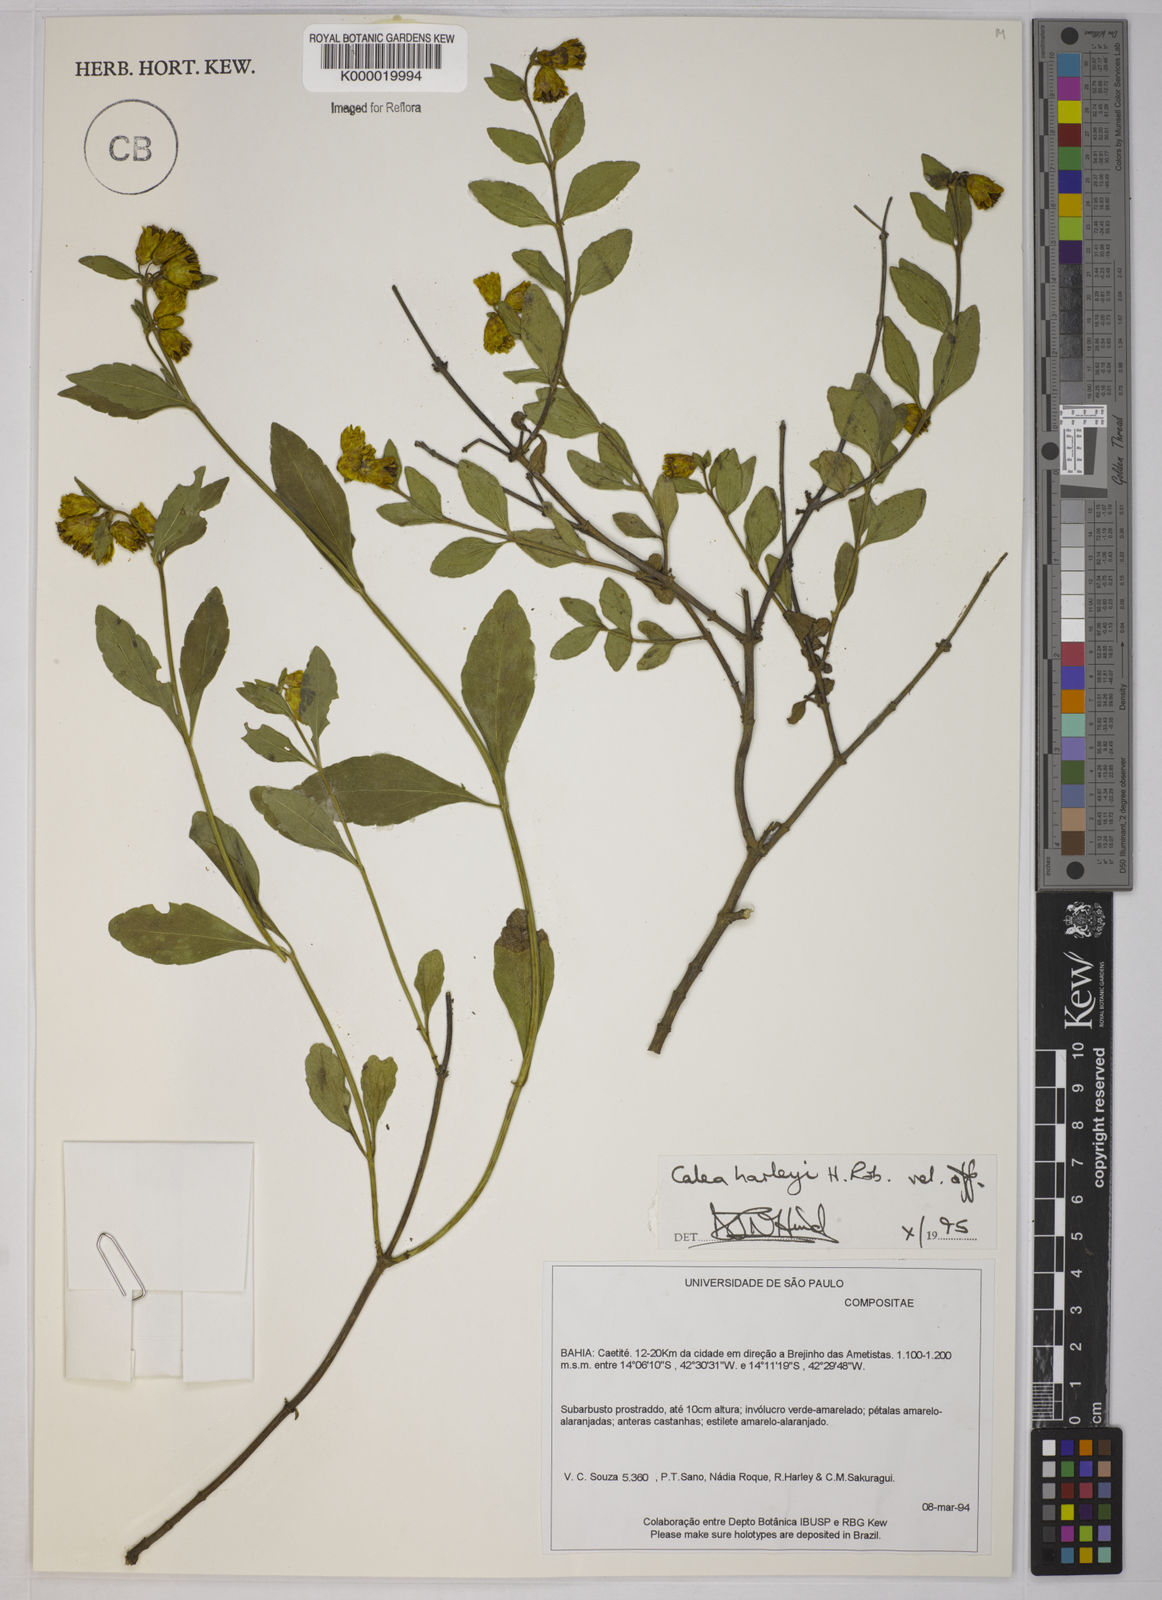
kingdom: Plantae
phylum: Tracheophyta
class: Magnoliopsida
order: Asterales
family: Asteraceae
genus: Calea
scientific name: Calea harleyi
